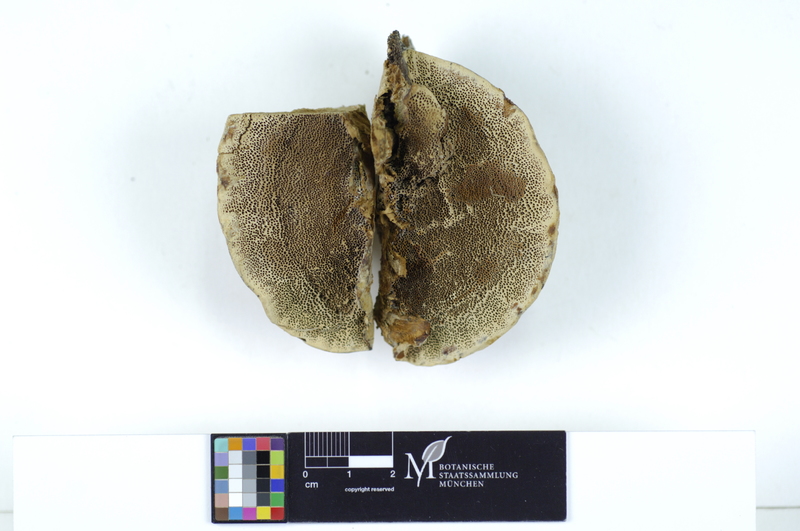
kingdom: Fungi
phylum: Basidiomycota
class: Agaricomycetes
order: Polyporales
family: Polyporaceae
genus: Coriolopsis
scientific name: Coriolopsis gallica
